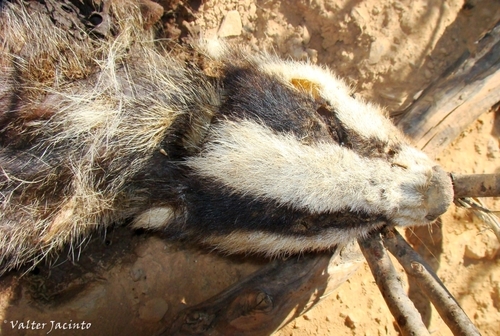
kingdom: Animalia
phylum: Chordata
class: Mammalia
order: Carnivora
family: Mustelidae
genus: Meles
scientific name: Meles meles
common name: Eurasian badger
